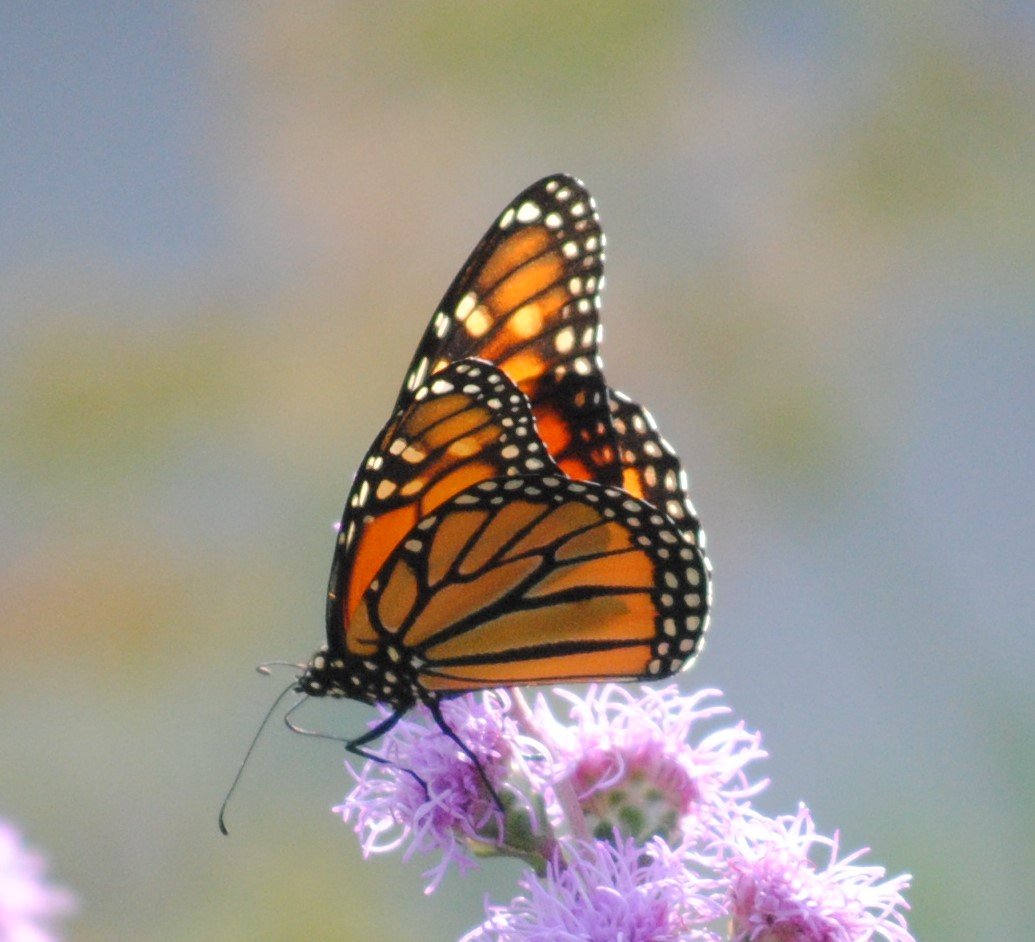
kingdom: Animalia
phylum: Arthropoda
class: Insecta
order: Lepidoptera
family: Nymphalidae
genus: Danaus
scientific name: Danaus plexippus
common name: Monarch
